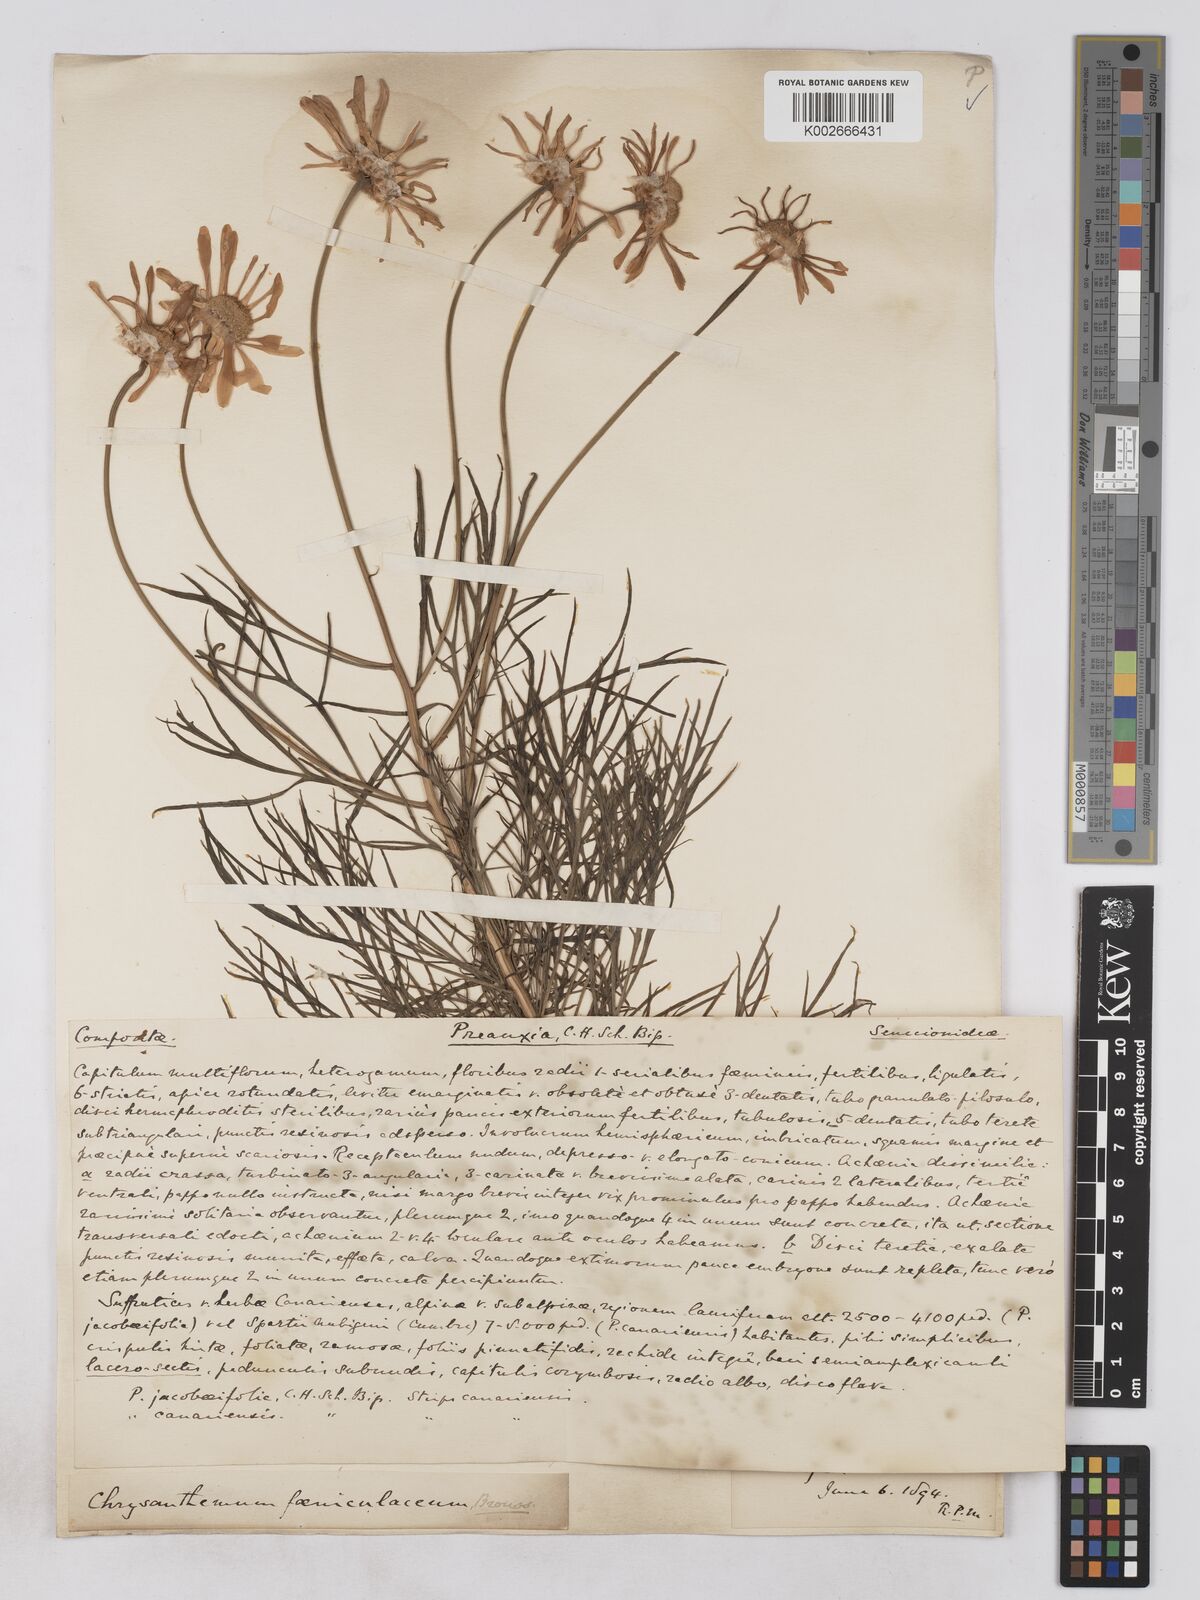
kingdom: Plantae
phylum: Tracheophyta
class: Magnoliopsida
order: Asterales
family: Asteraceae
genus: Argyranthemum
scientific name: Argyranthemum foeniculaceum
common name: Canary island marguerite
